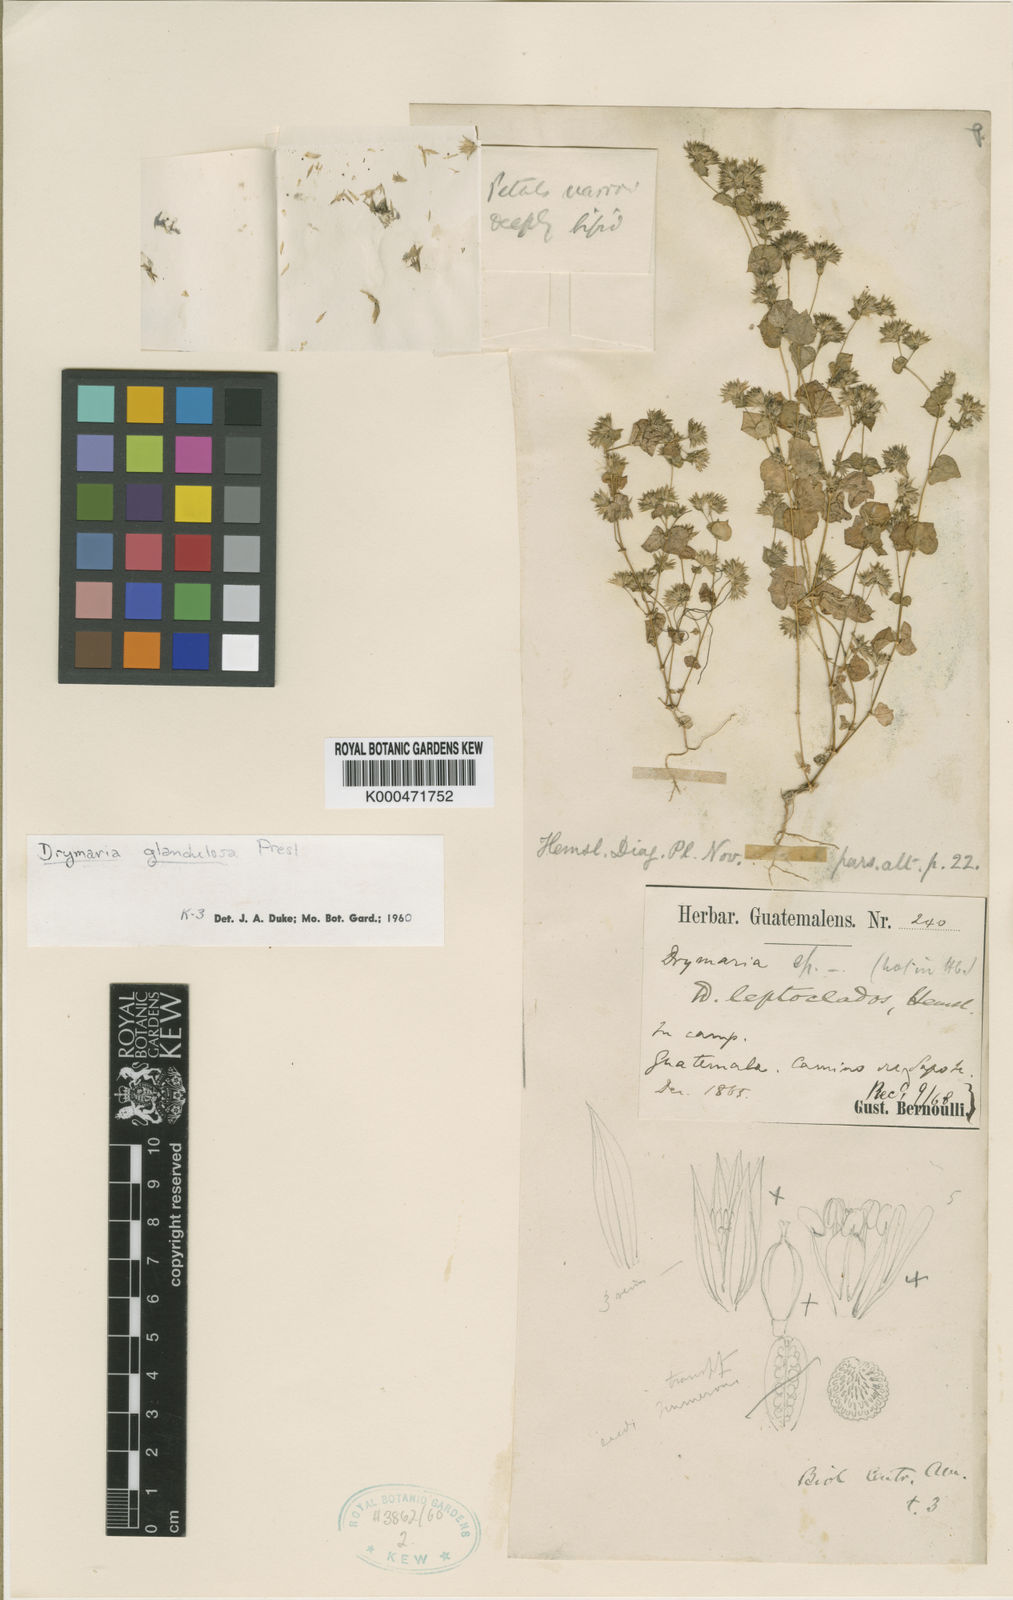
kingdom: Plantae
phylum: Tracheophyta
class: Magnoliopsida
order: Caryophyllales
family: Caryophyllaceae
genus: Drymaria
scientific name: Drymaria glandulosa
